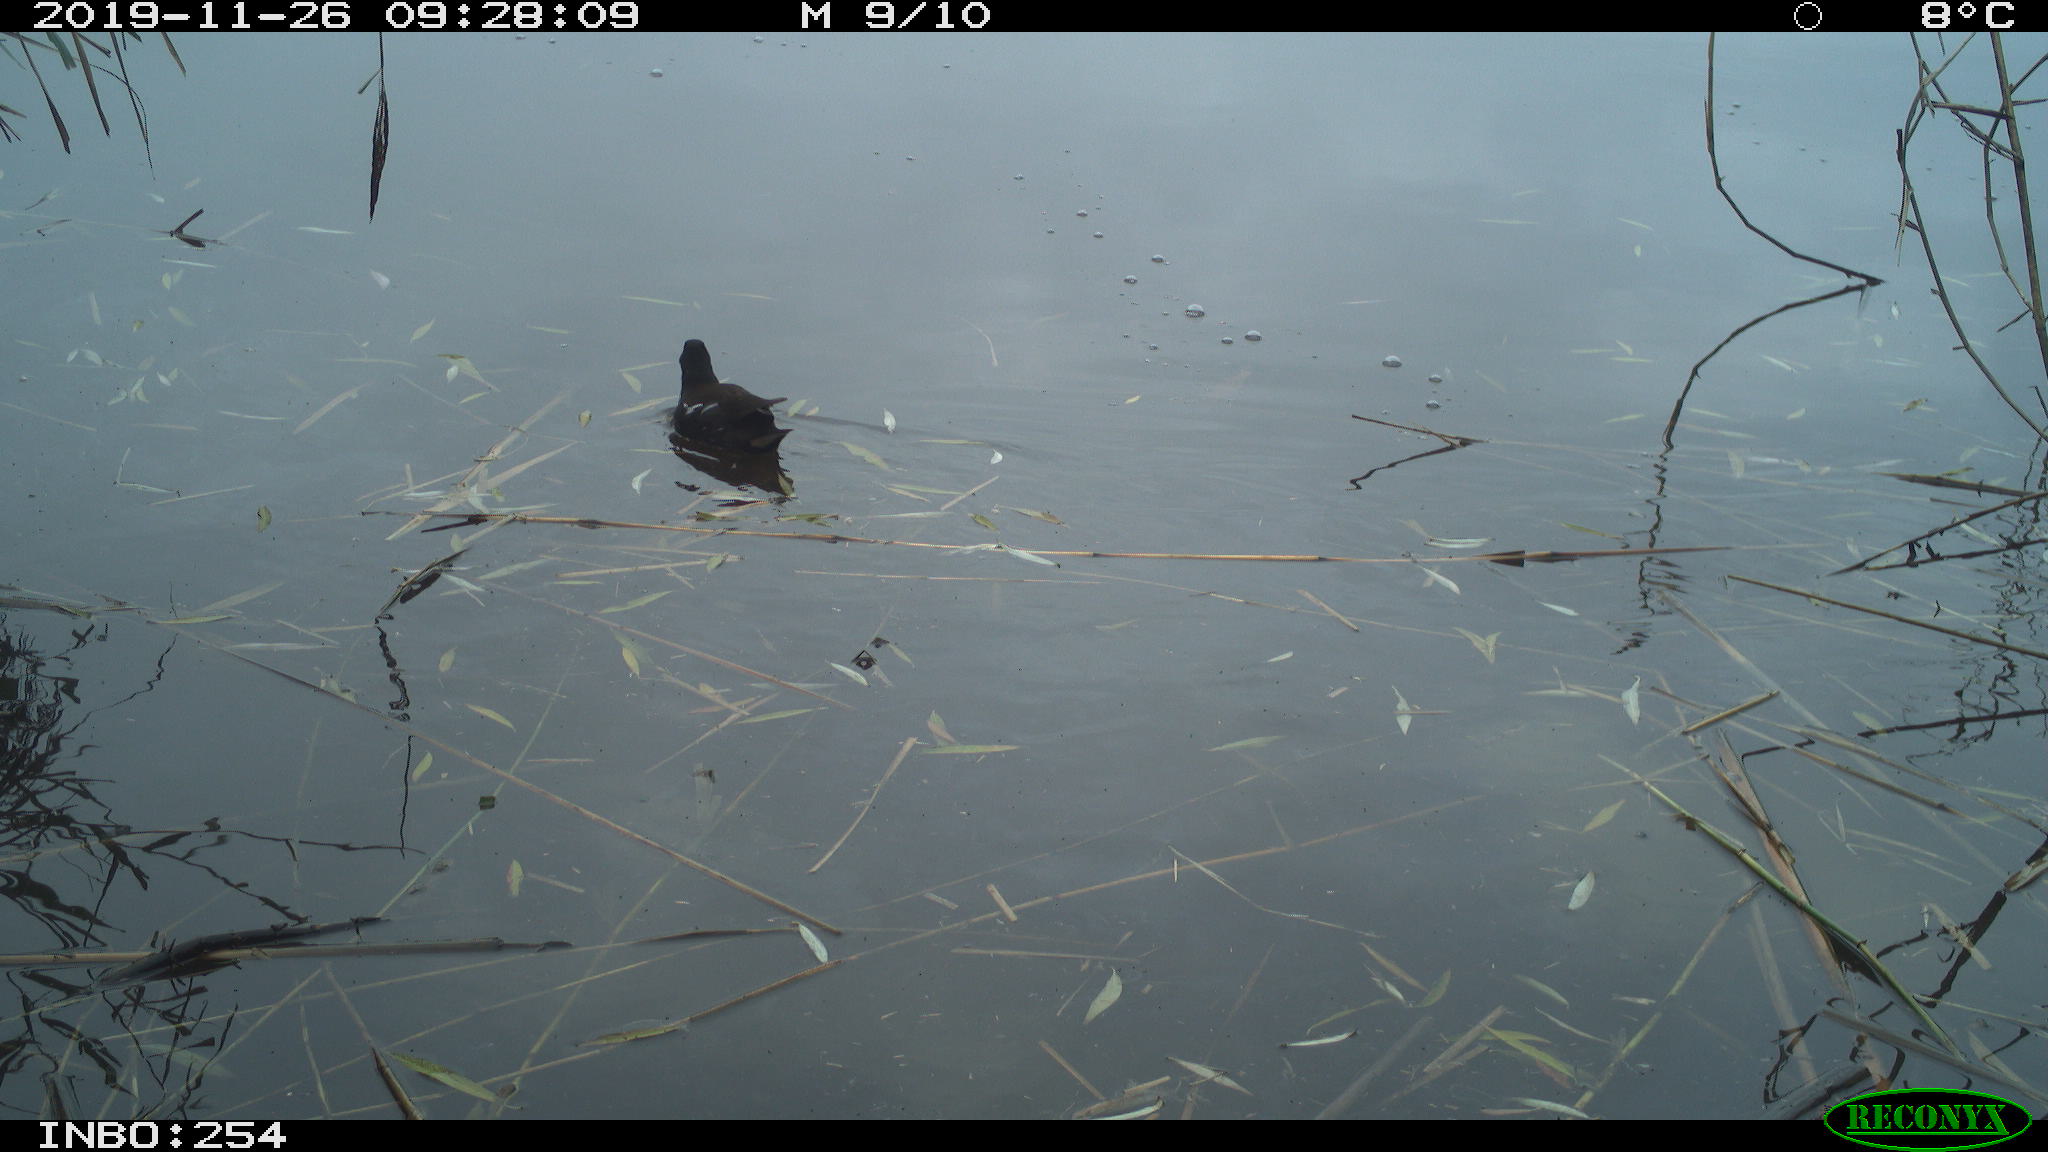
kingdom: Animalia
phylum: Chordata
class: Aves
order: Gruiformes
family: Rallidae
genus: Gallinula
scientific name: Gallinula chloropus
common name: Common moorhen
